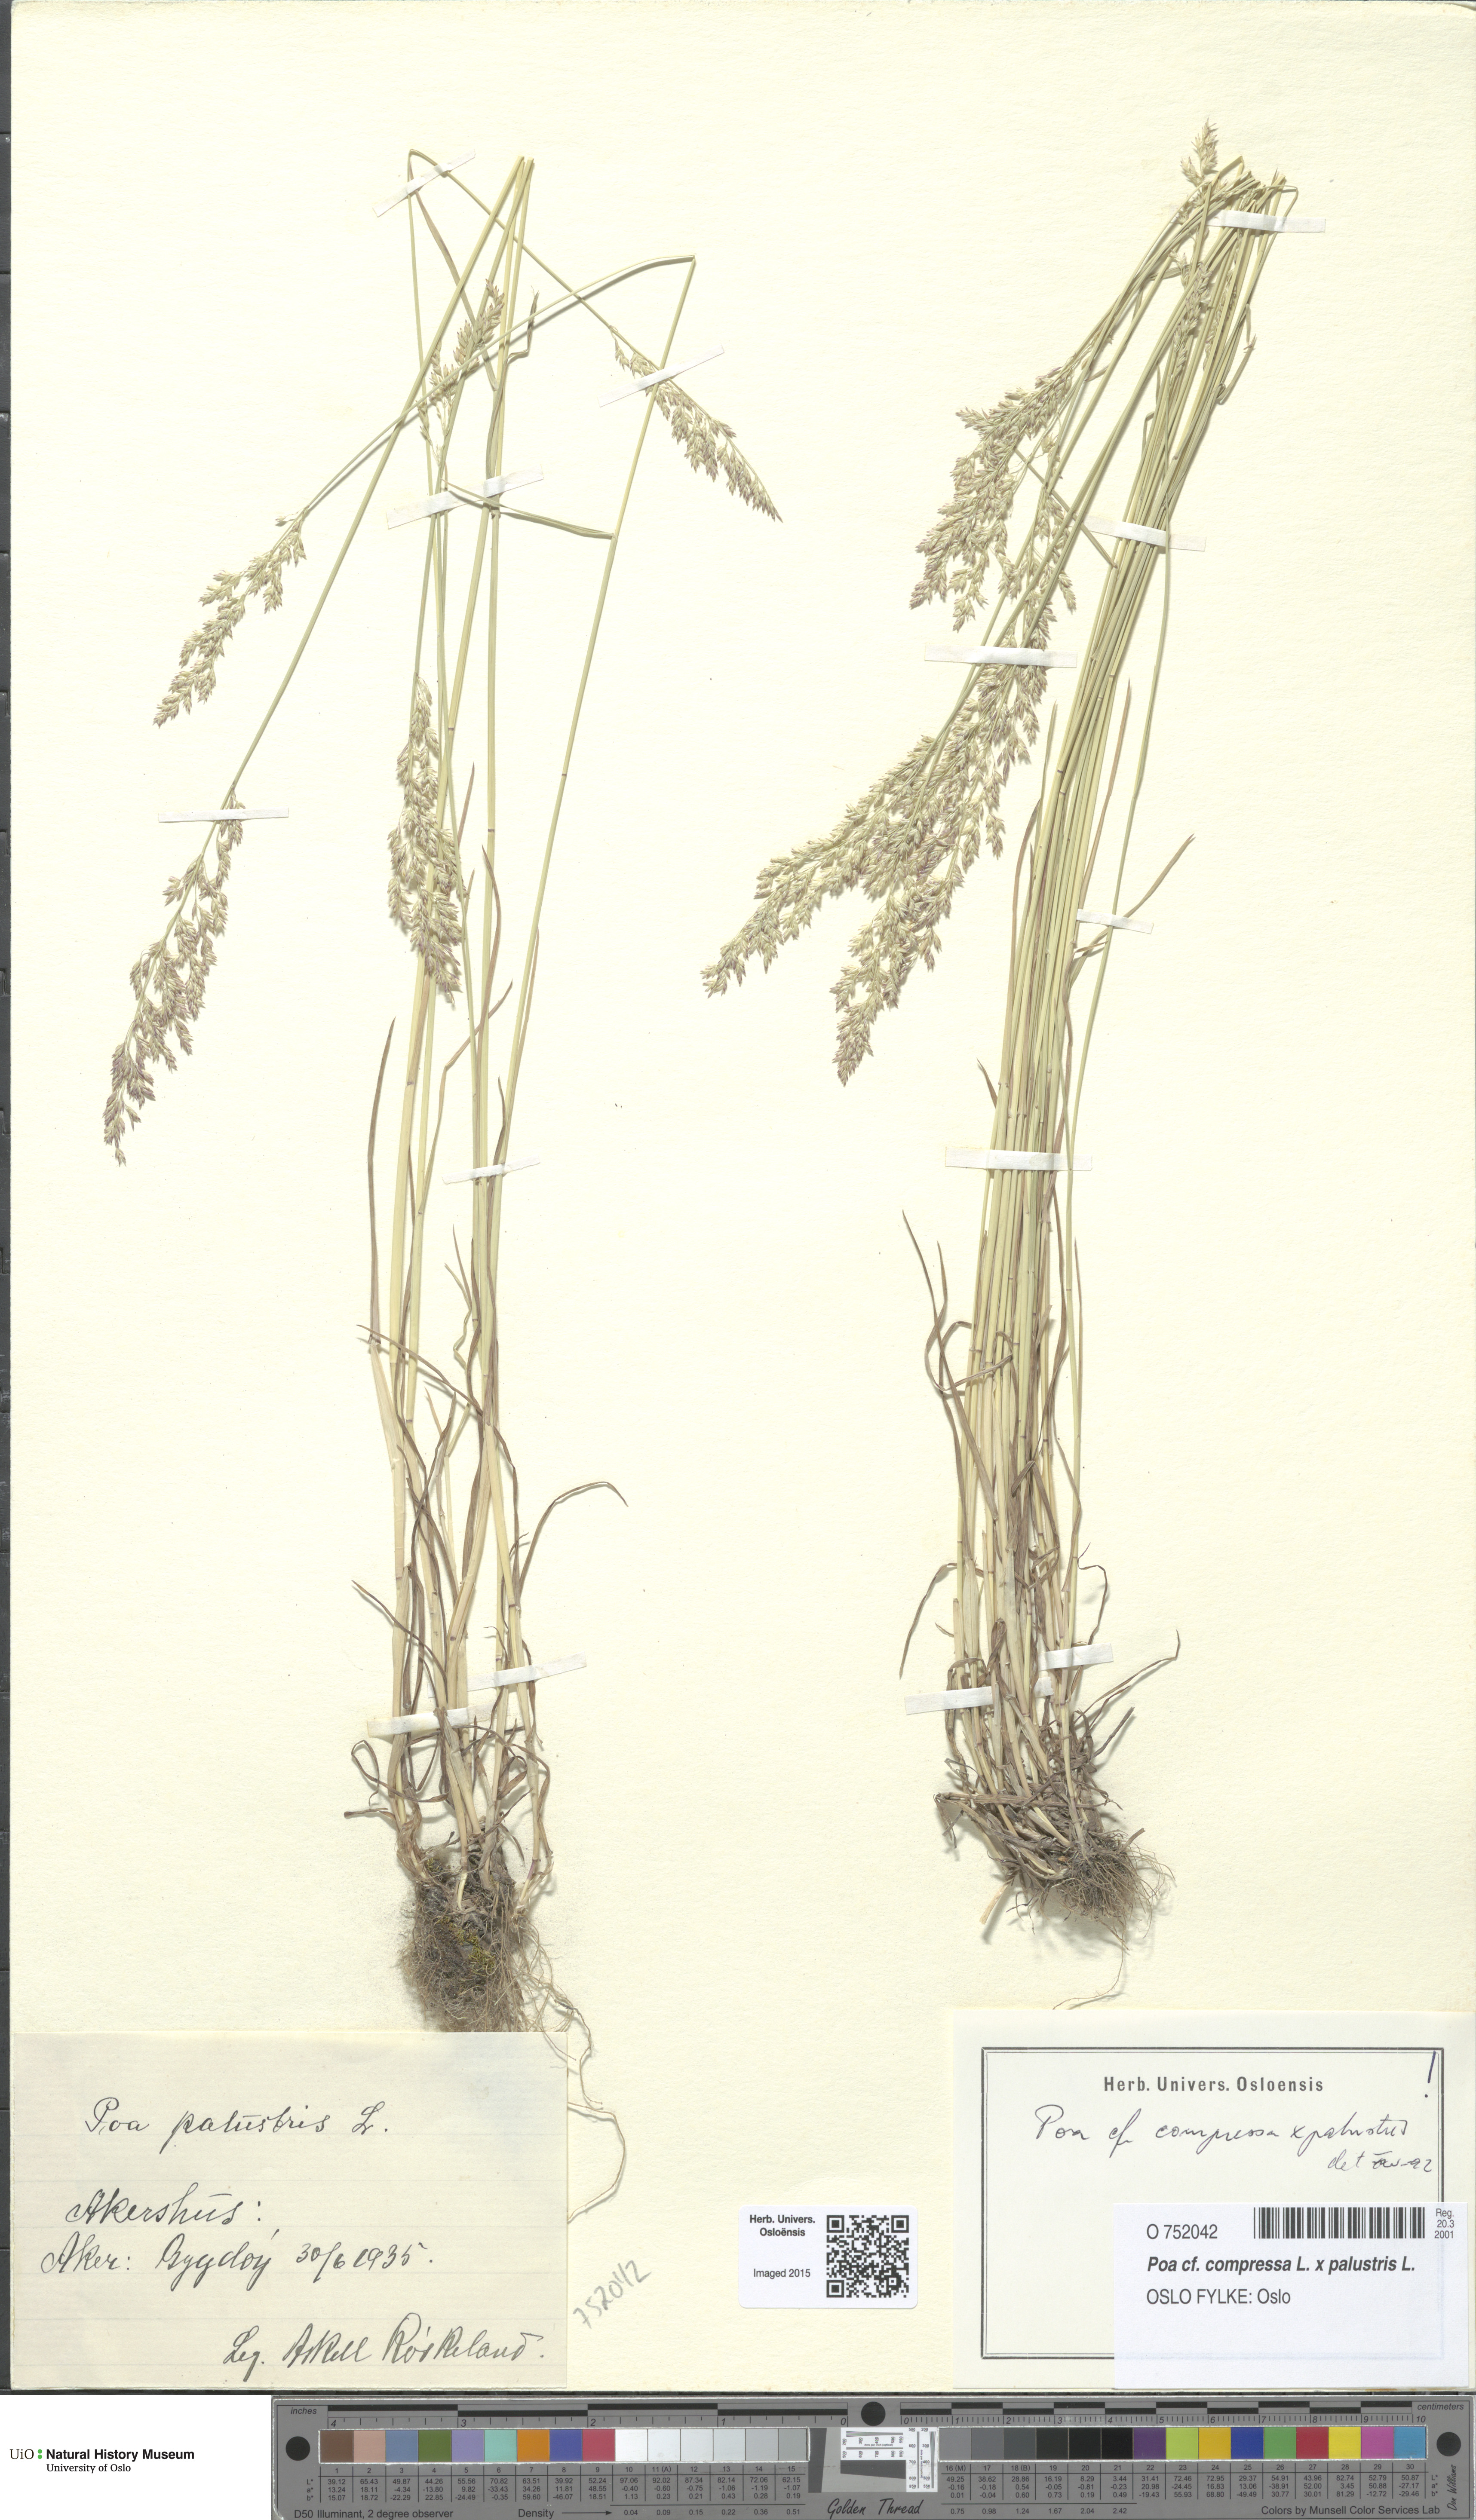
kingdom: Plantae
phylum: Tracheophyta
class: Liliopsida
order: Poales
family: Poaceae
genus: Poa
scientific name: Poa
